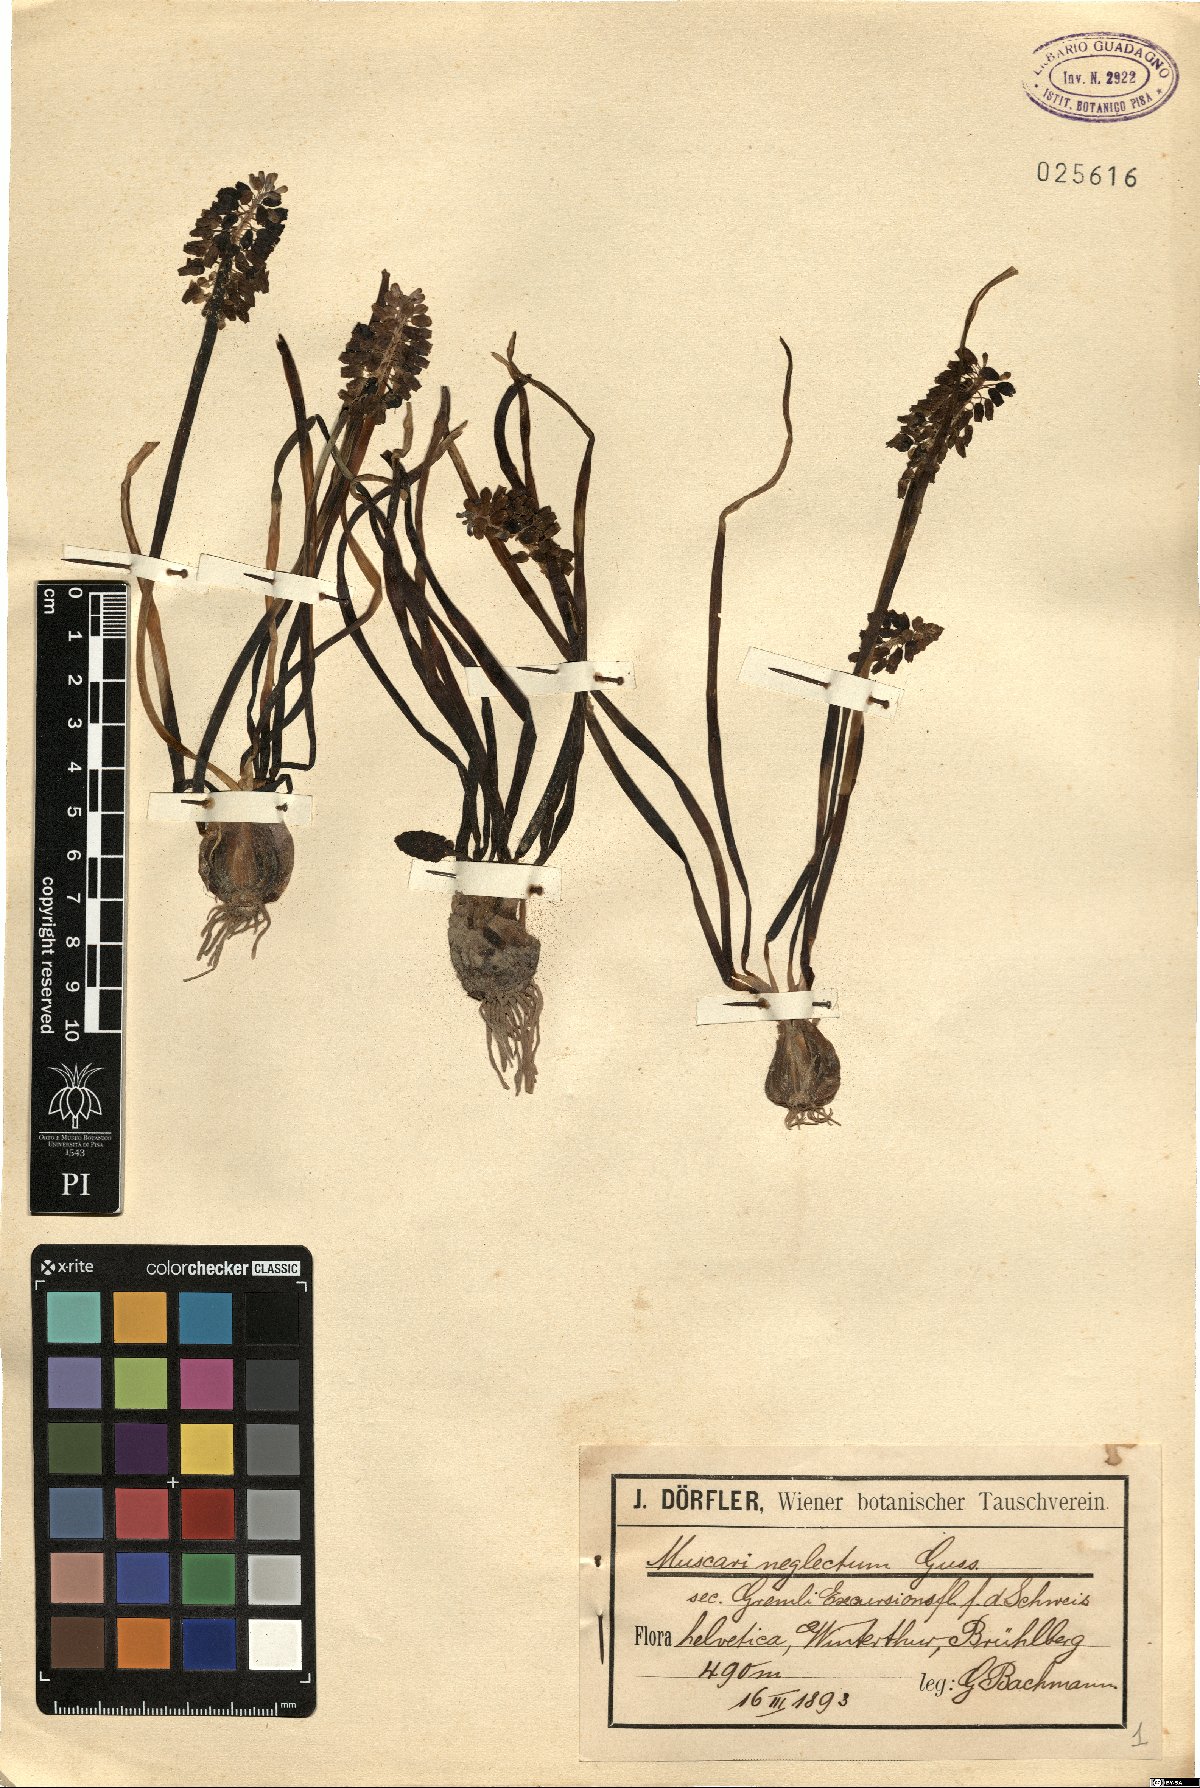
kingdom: Plantae
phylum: Tracheophyta
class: Liliopsida
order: Asparagales
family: Asparagaceae
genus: Muscari
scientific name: Muscari neglectum
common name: Grape-hyacinth
